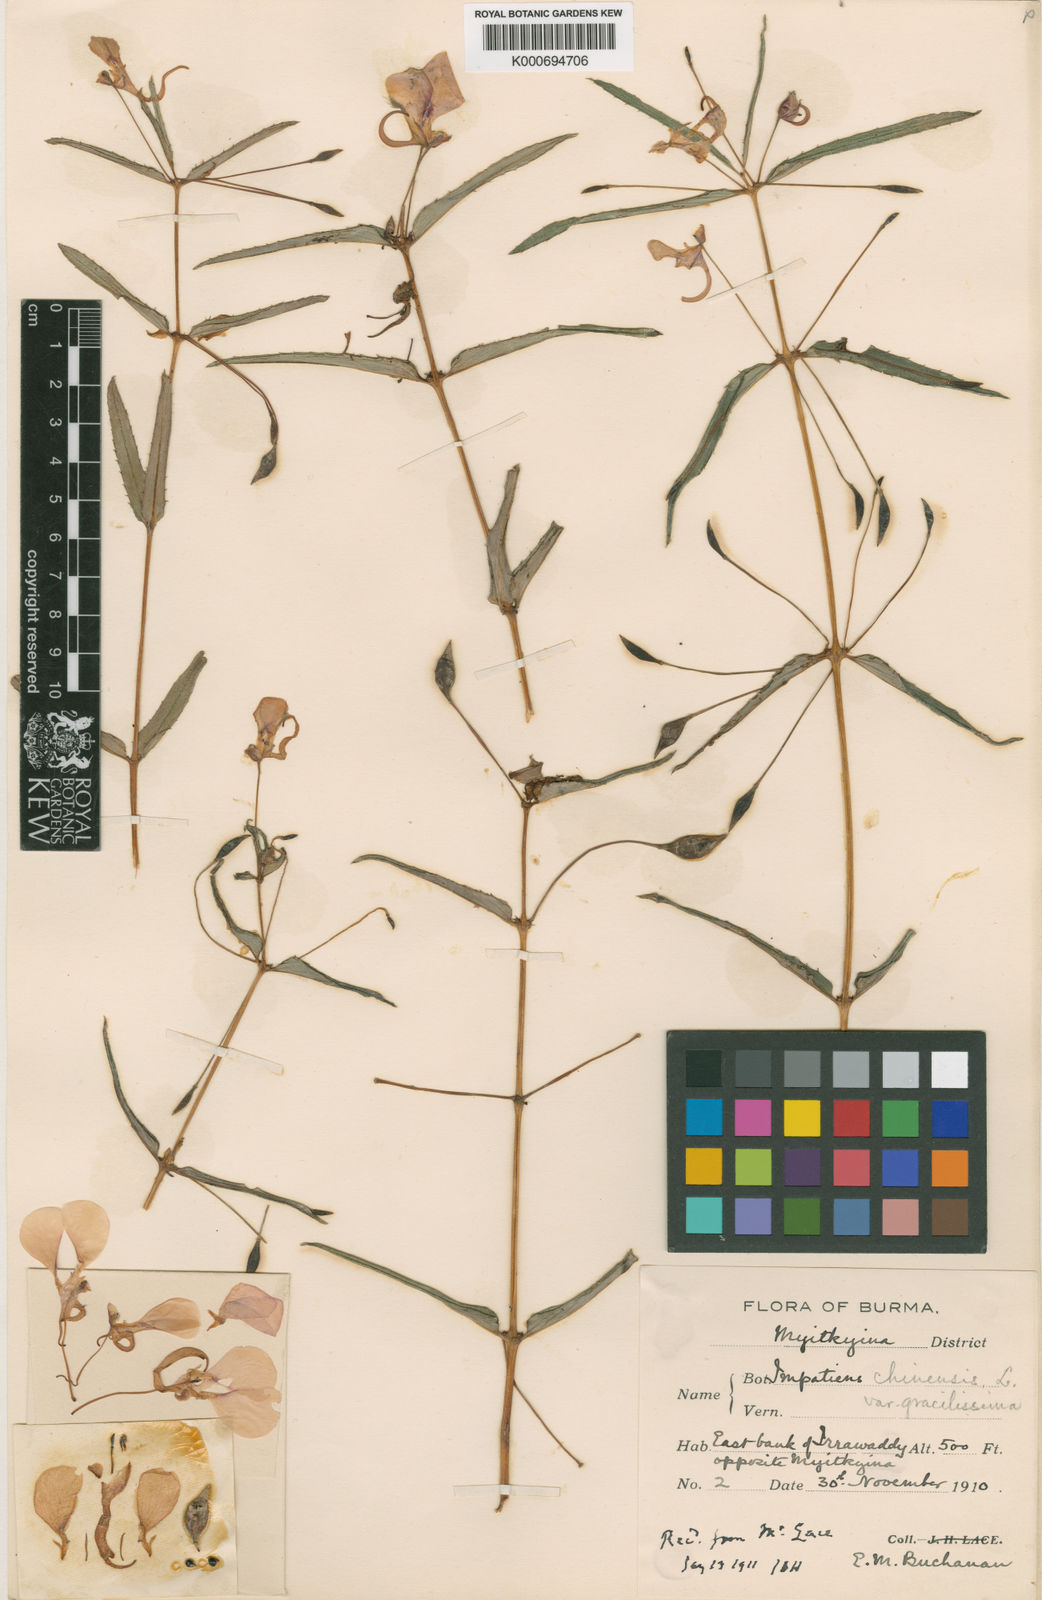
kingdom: Plantae
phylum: Tracheophyta
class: Magnoliopsida
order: Ericales
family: Balsaminaceae
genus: Impatiens
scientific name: Impatiens chinensis
